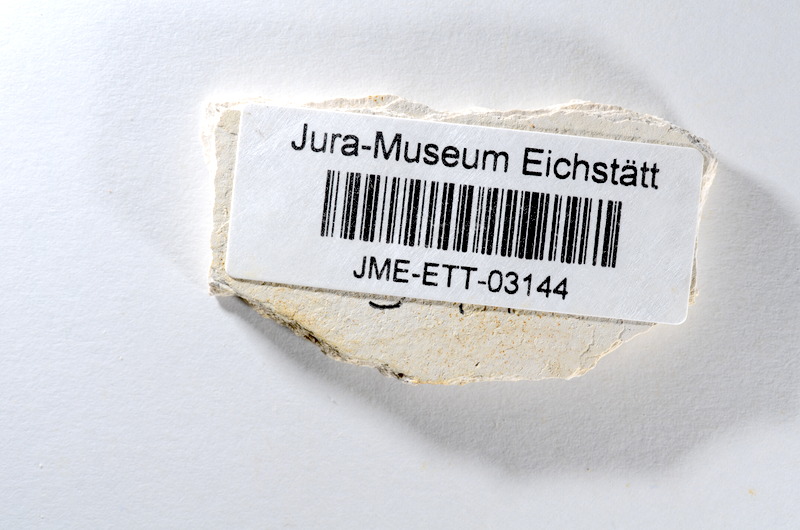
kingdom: Animalia
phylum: Chordata
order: Salmoniformes
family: Orthogonikleithridae
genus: Orthogonikleithrus
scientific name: Orthogonikleithrus hoelli
